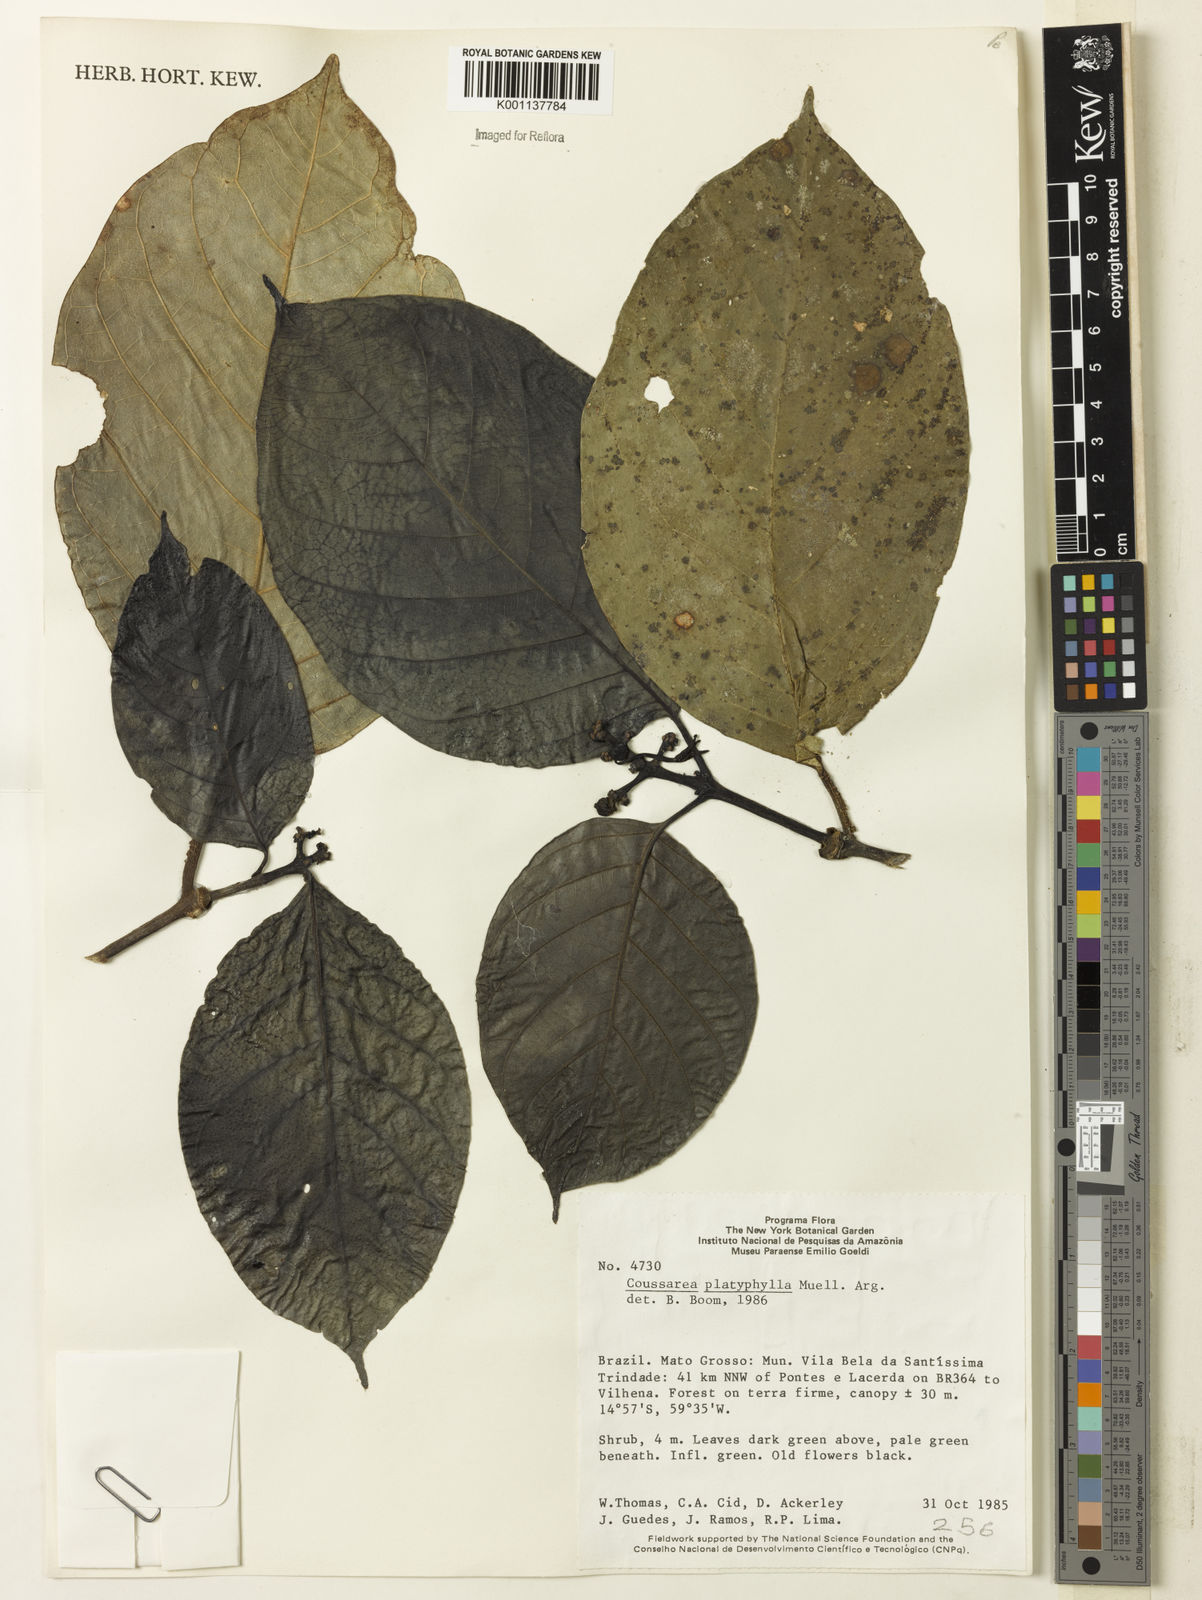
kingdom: Plantae
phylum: Tracheophyta
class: Magnoliopsida
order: Gentianales
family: Rubiaceae
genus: Coussarea
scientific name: Coussarea
